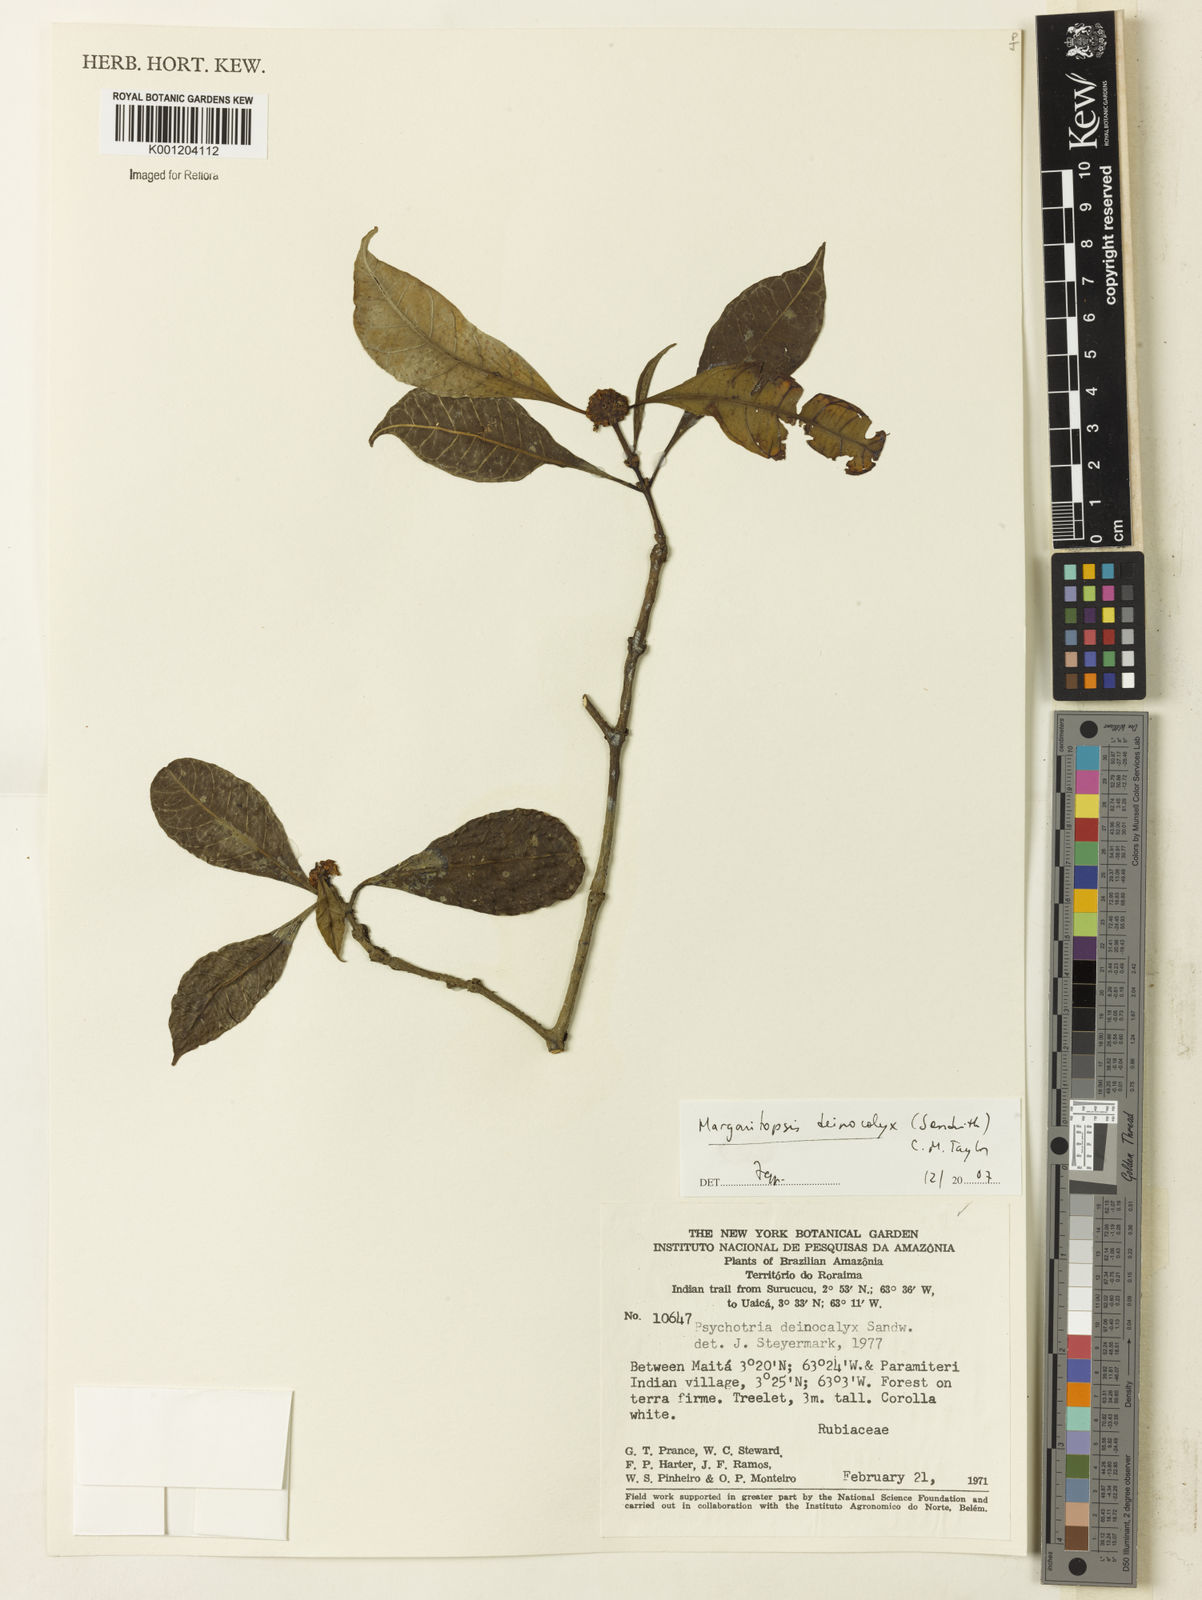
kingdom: Plantae
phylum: Tracheophyta
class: Magnoliopsida
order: Gentianales
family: Rubiaceae
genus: Eumachia
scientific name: Eumachia deinocalyx
